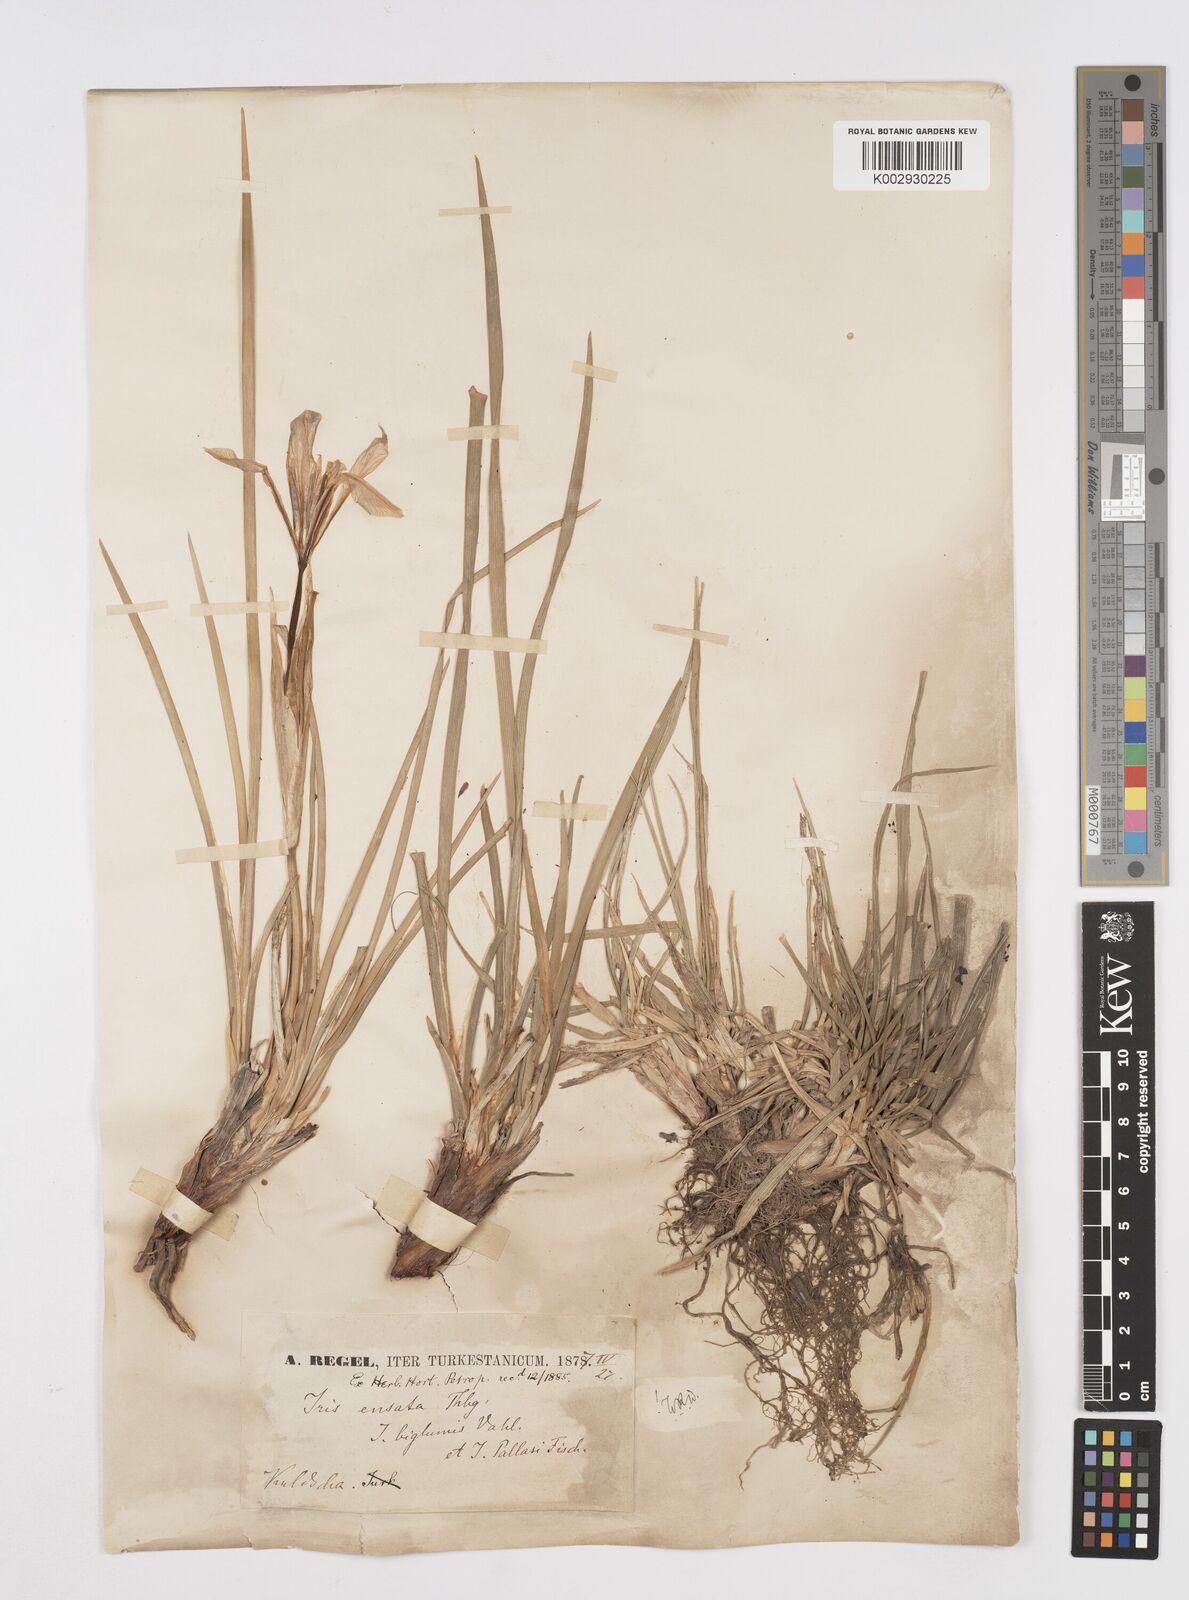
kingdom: Plantae
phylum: Tracheophyta
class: Liliopsida
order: Asparagales
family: Iridaceae
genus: Iris
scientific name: Iris ensata
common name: Beaked iris
